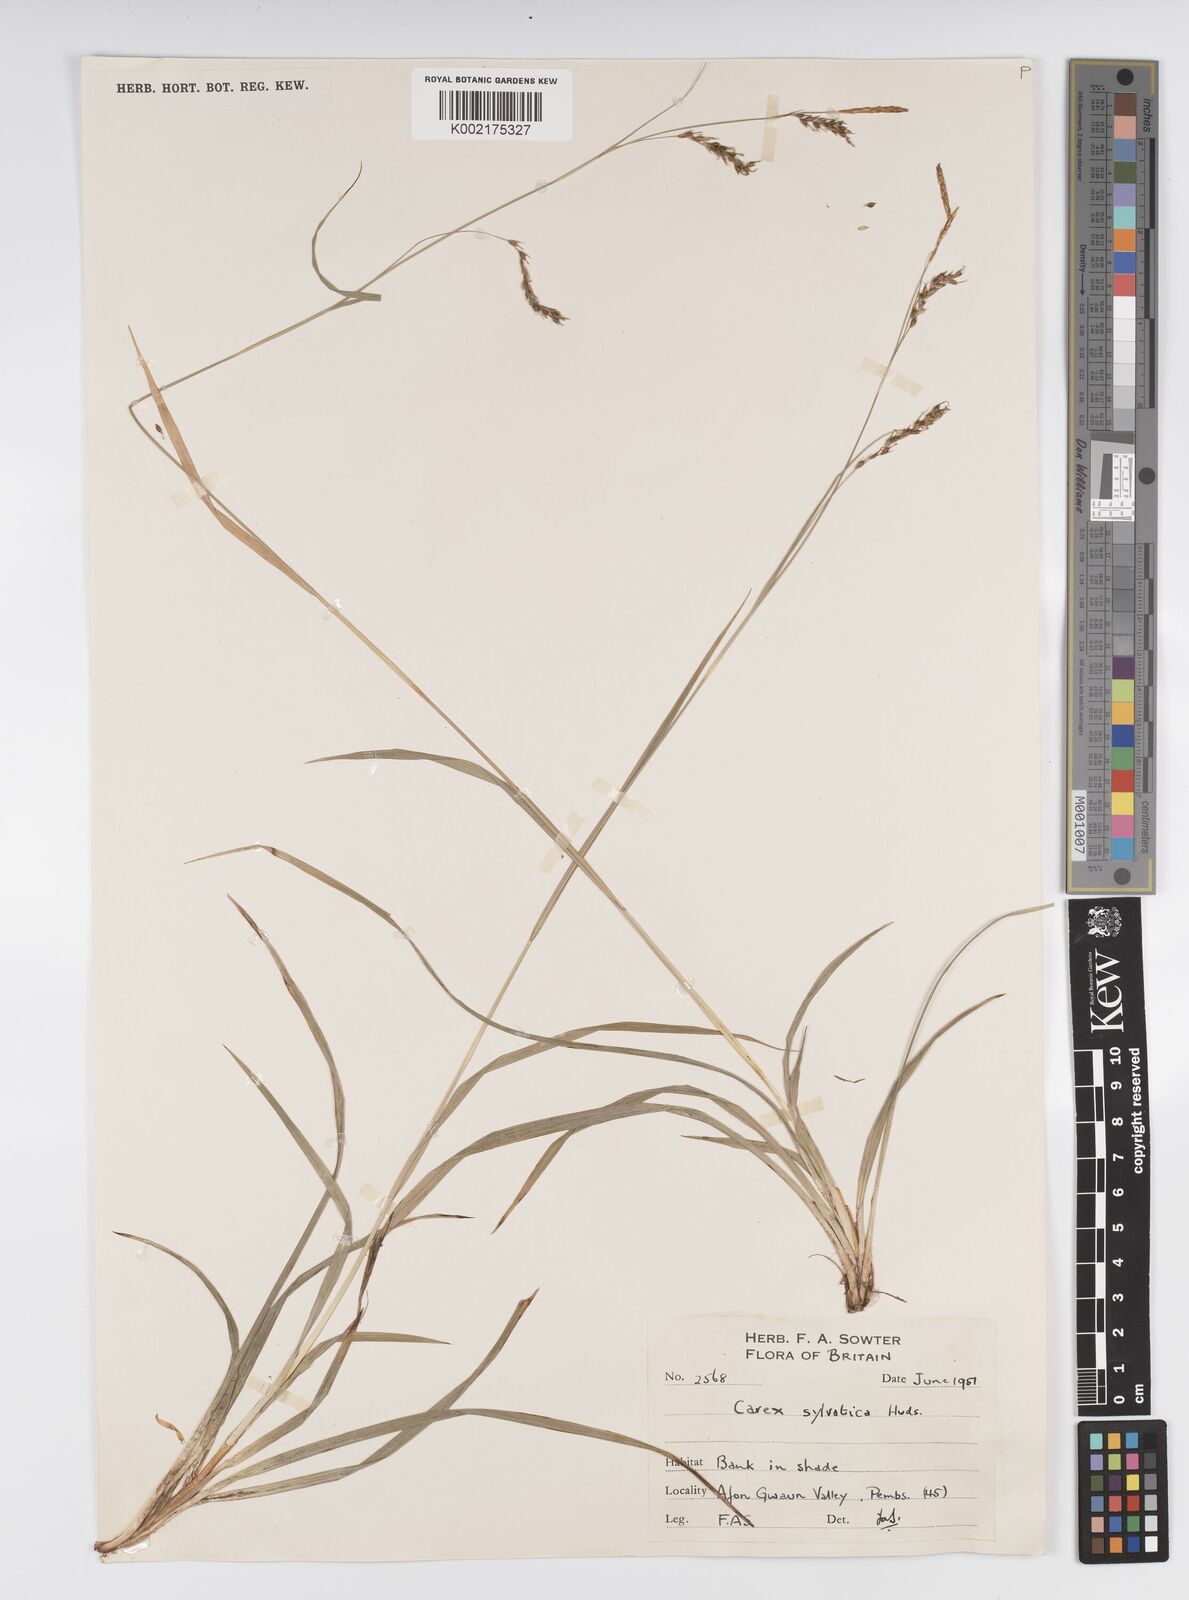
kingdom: Plantae
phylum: Tracheophyta
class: Liliopsida
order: Poales
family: Cyperaceae
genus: Carex
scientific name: Carex sylvatica
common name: Wood-sedge
